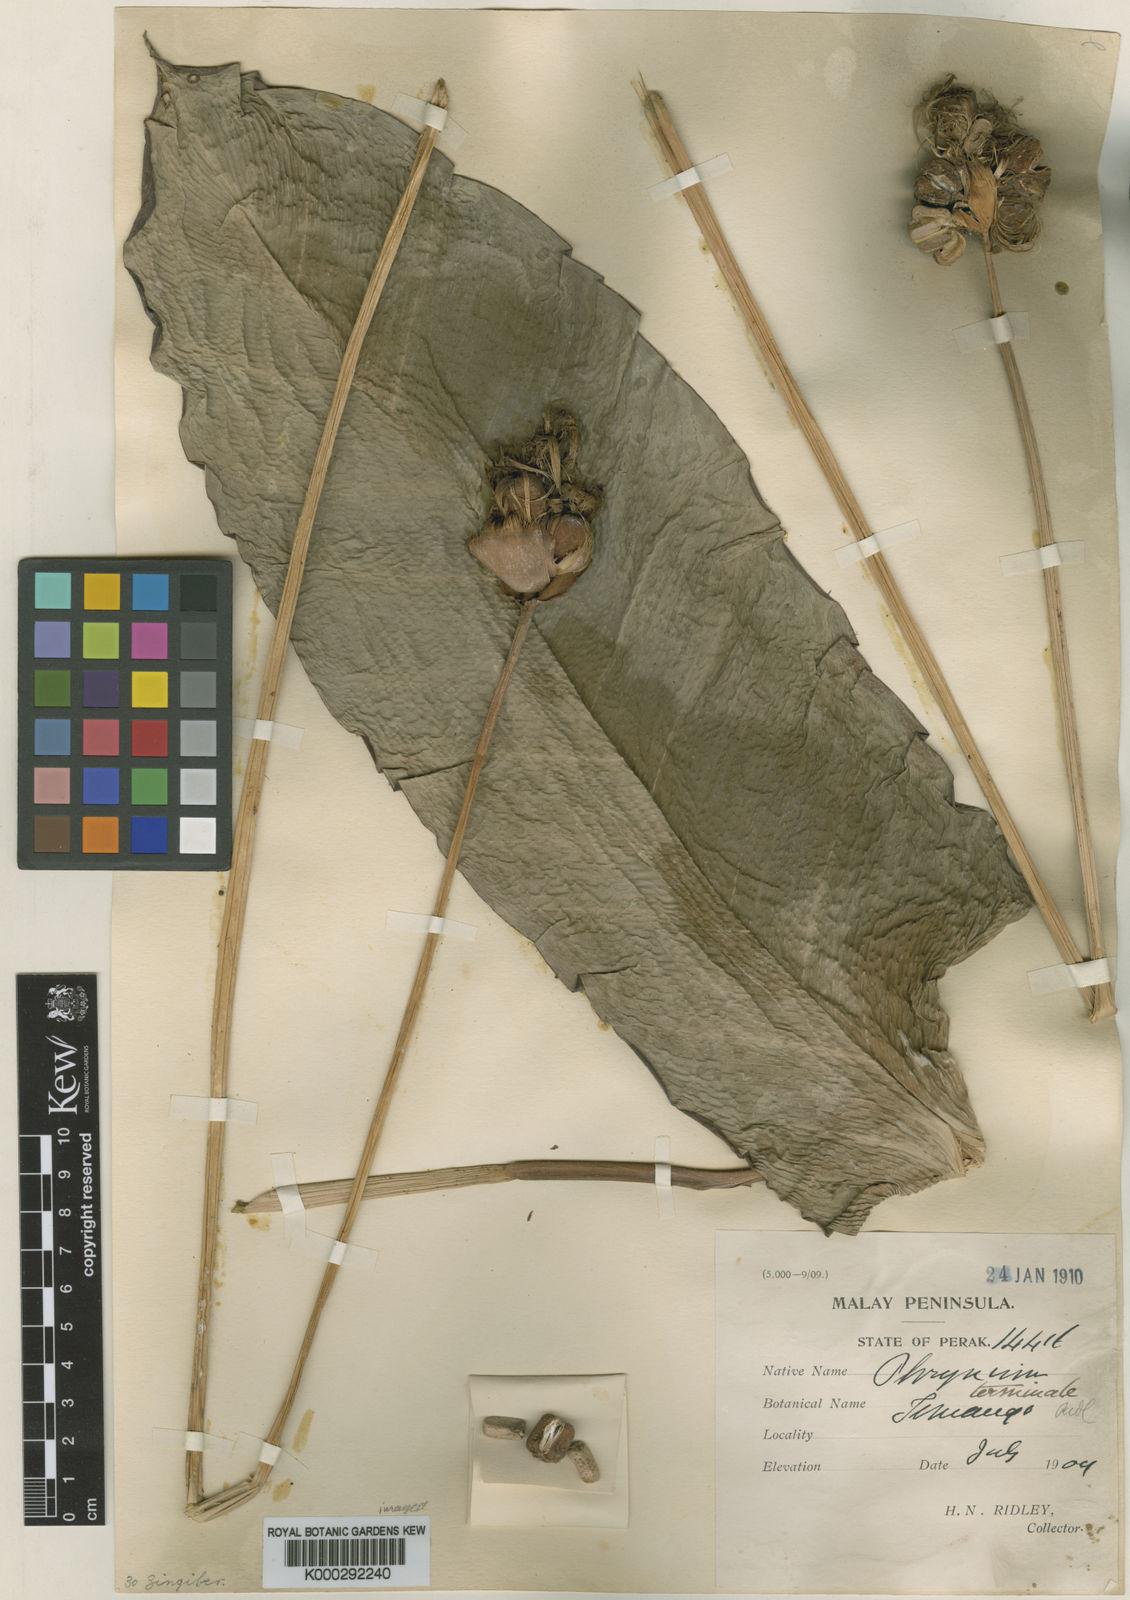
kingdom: Plantae
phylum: Tracheophyta
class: Liliopsida
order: Zingiberales
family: Marantaceae
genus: Phrynium
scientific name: Phrynium obscurum
